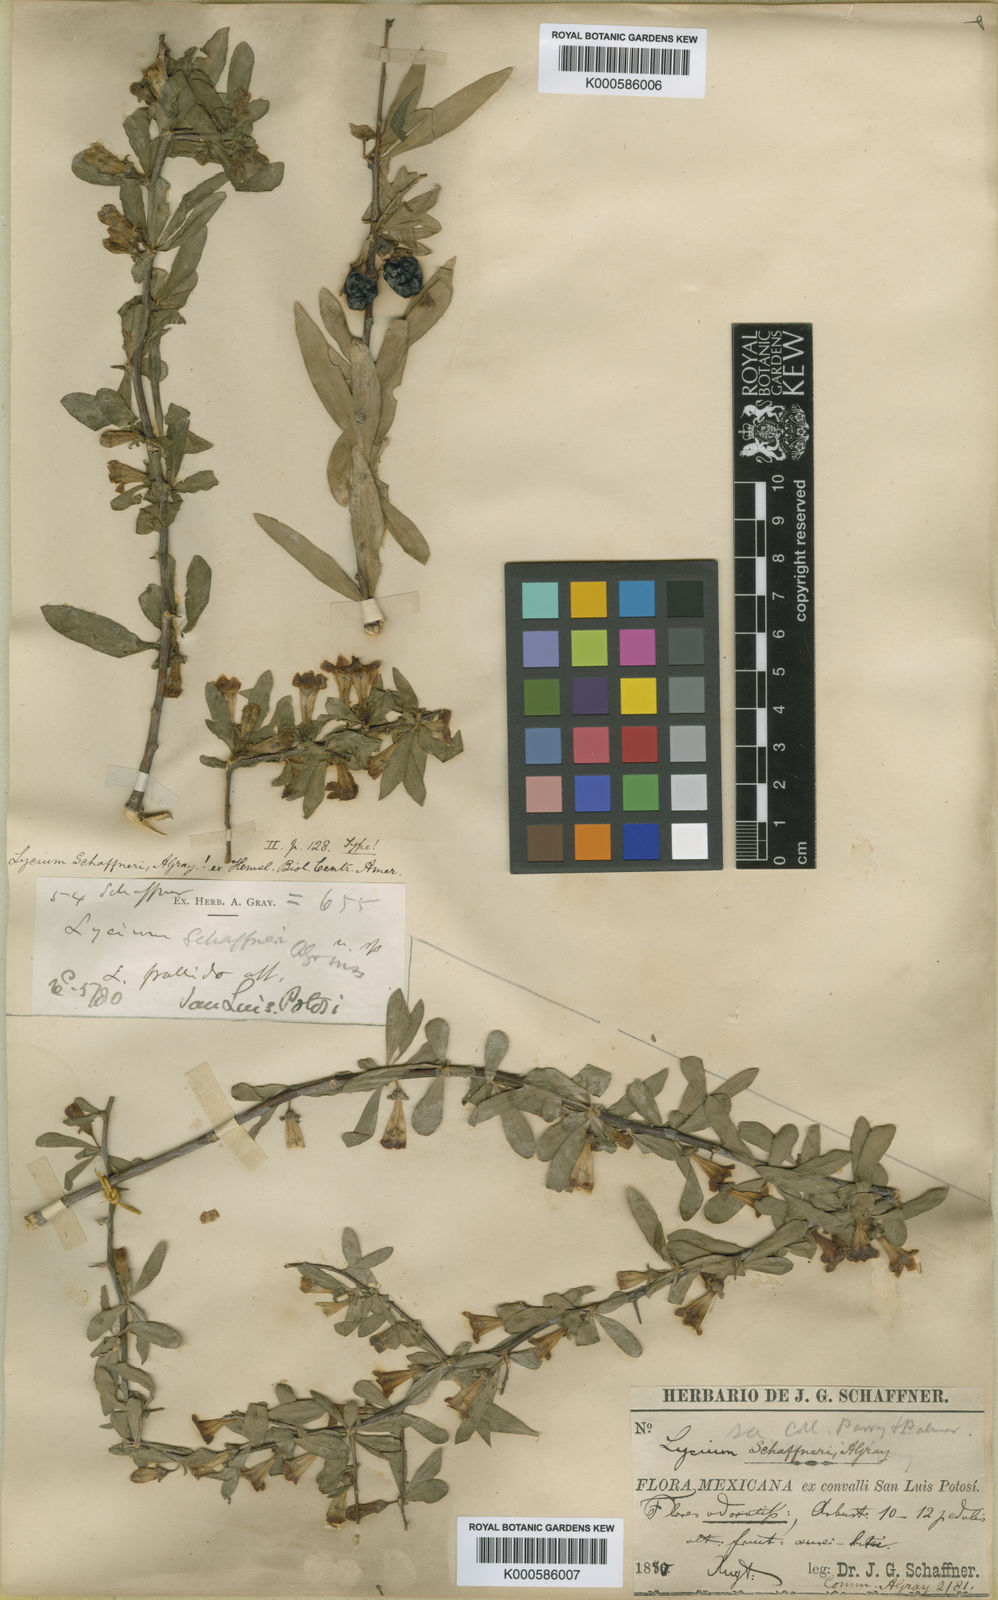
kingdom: Plantae
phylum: Tracheophyta
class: Magnoliopsida
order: Solanales
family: Solanaceae
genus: Lycium
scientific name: Lycium pallidum
